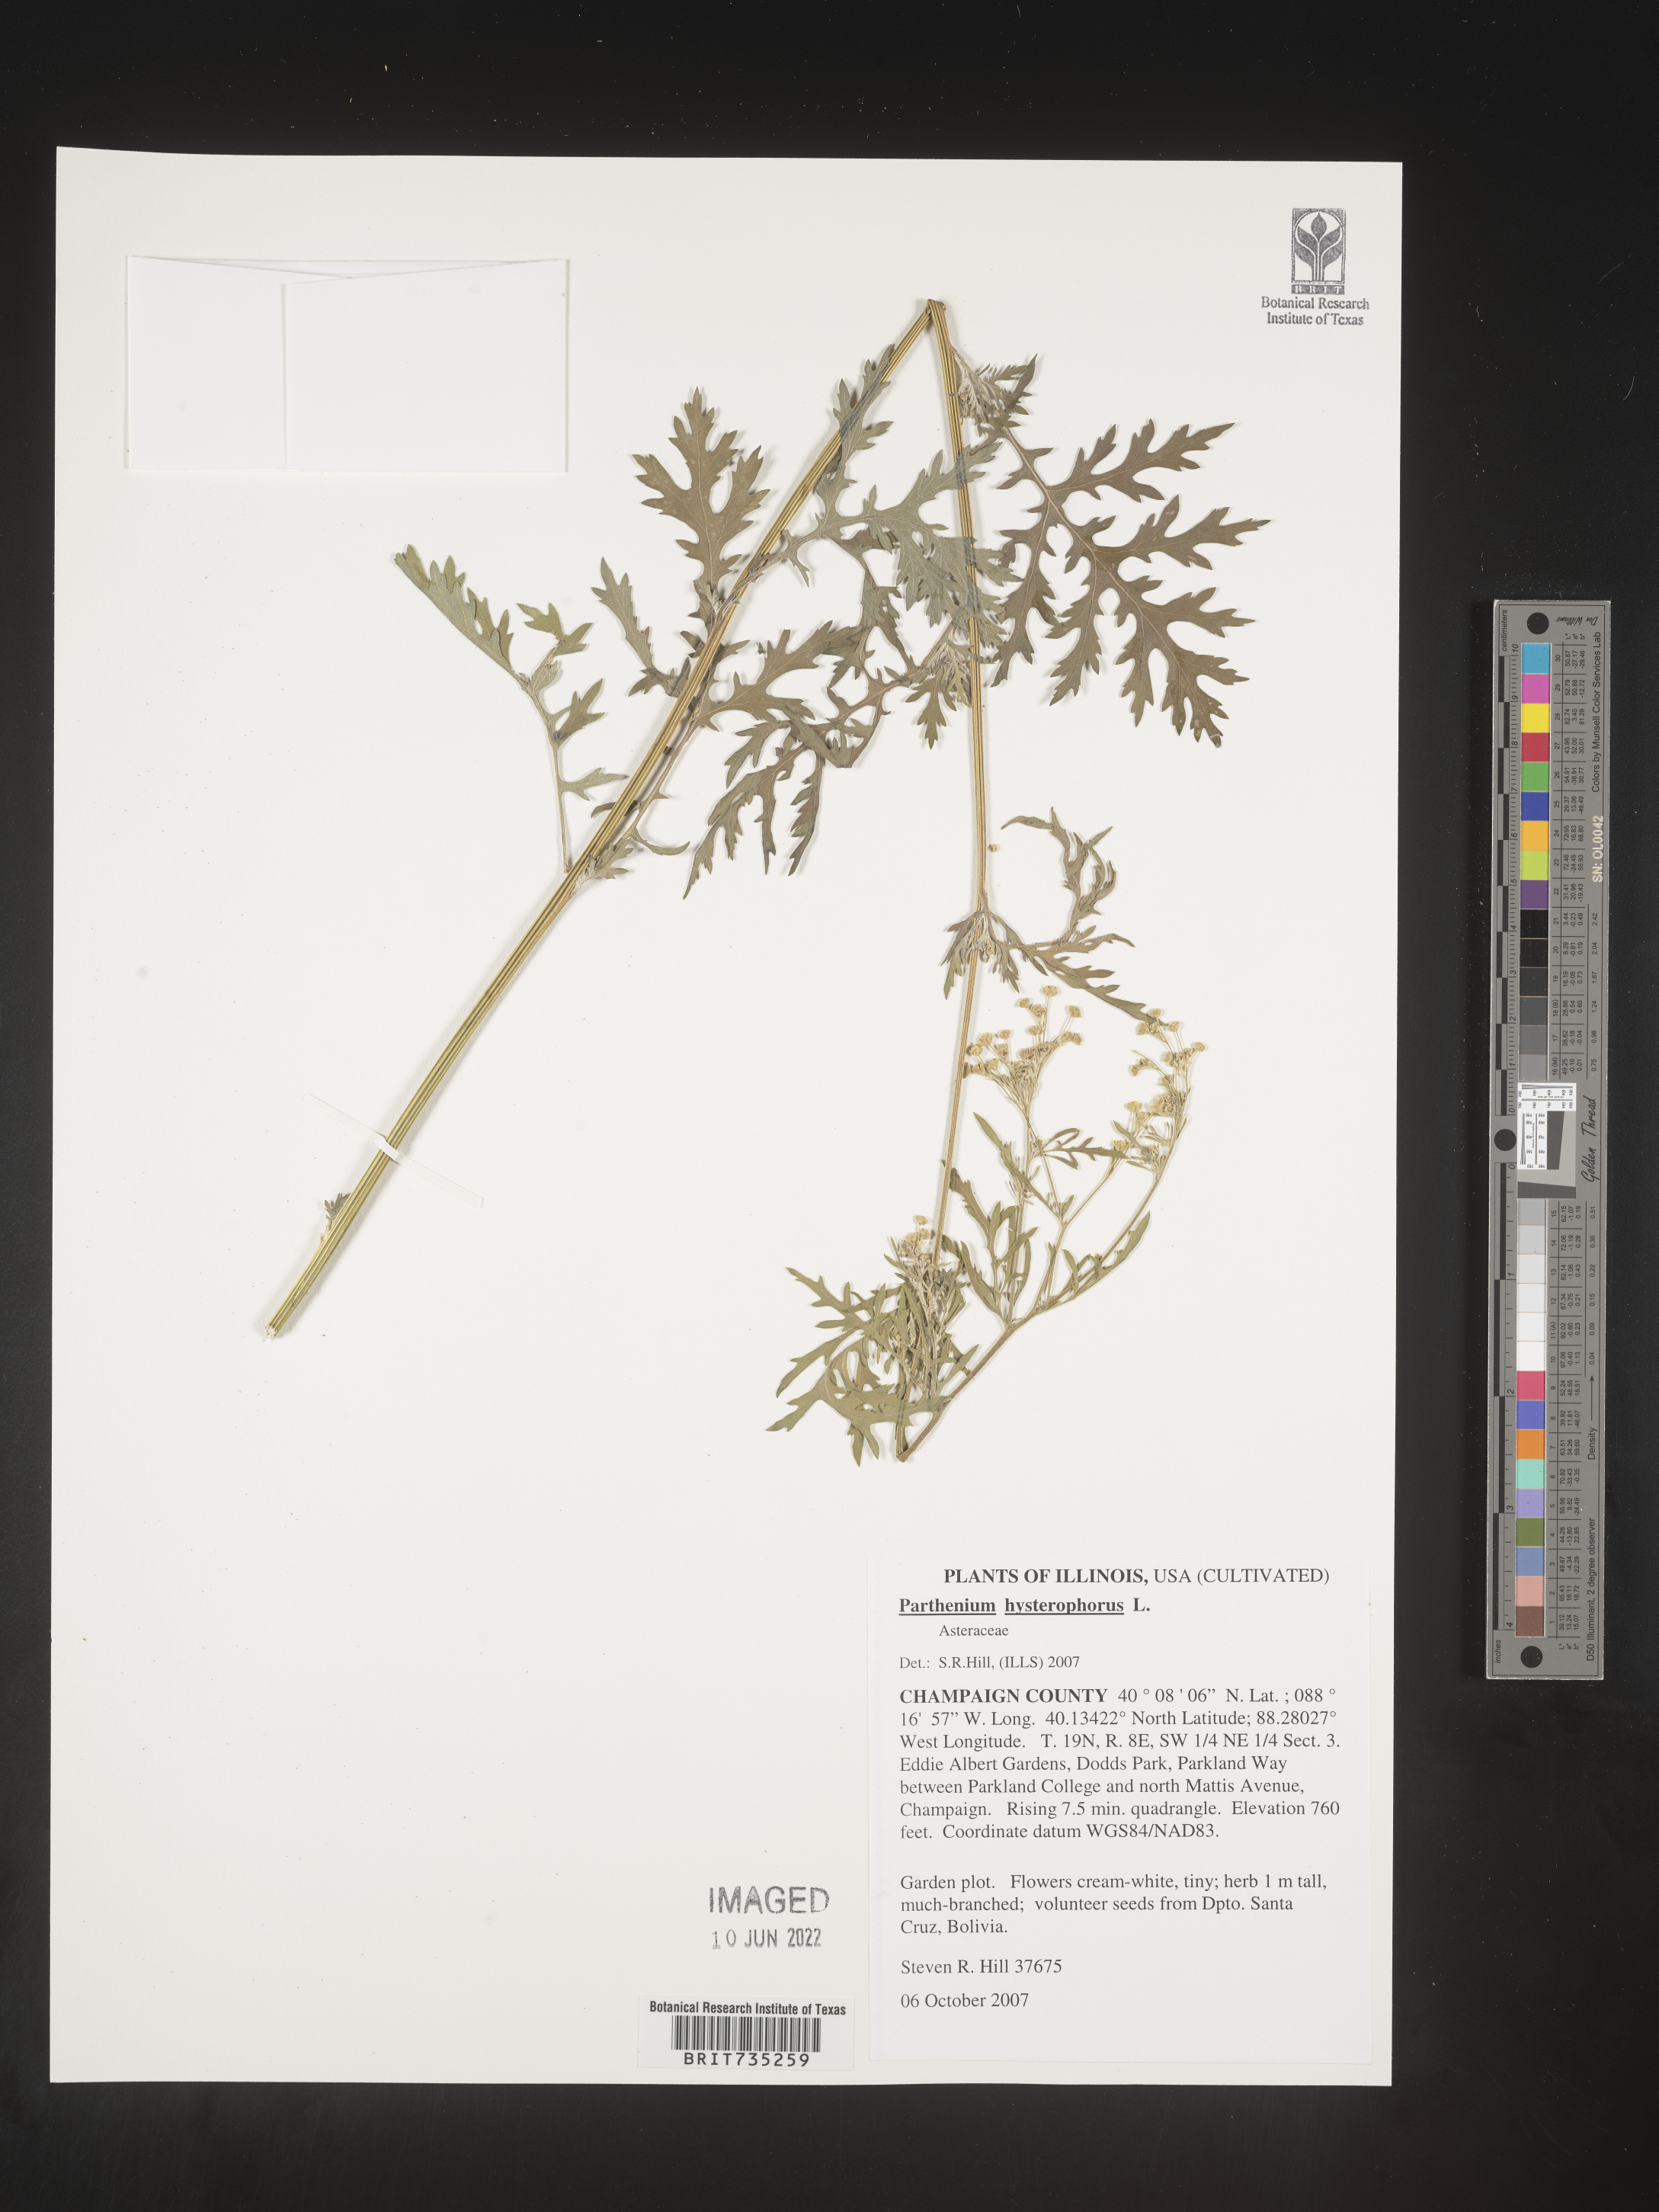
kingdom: Plantae
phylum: Tracheophyta
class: Magnoliopsida
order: Asterales
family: Asteraceae
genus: Parthenium
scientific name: Parthenium
